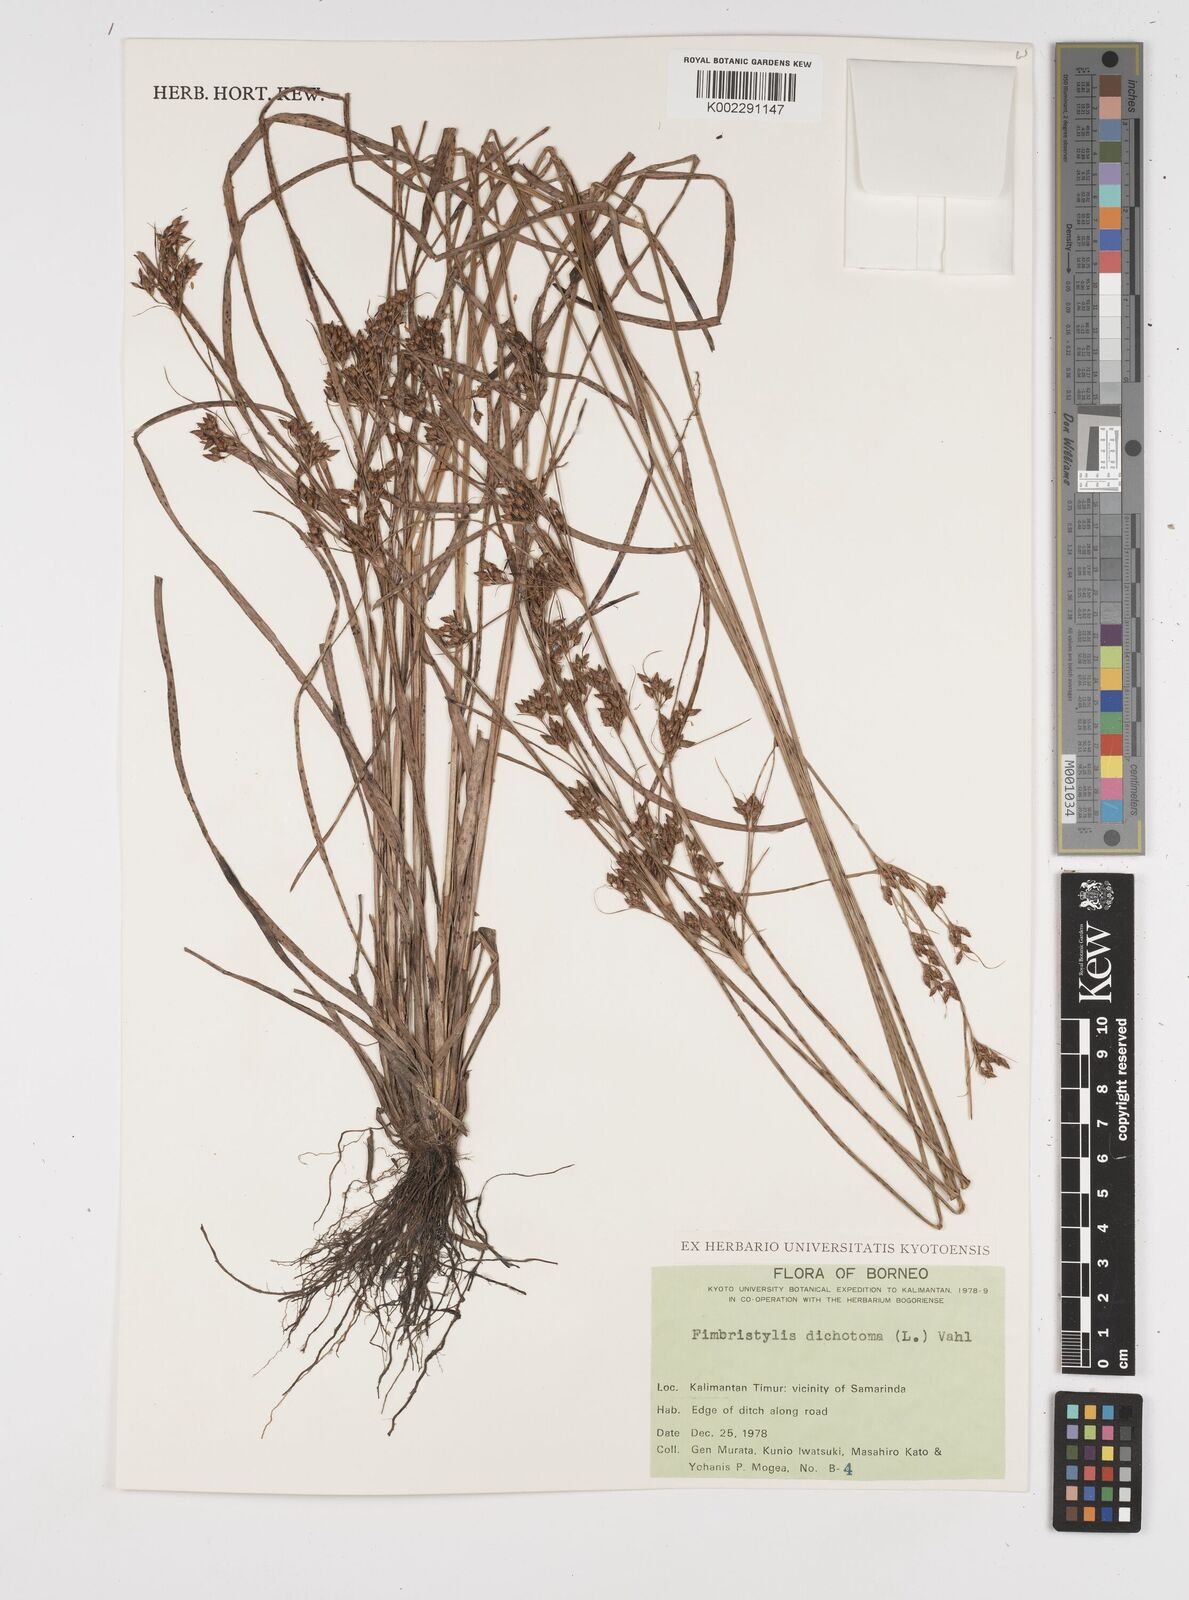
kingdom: Plantae
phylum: Tracheophyta
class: Liliopsida
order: Poales
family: Cyperaceae
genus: Fimbristylis
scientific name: Fimbristylis dichotoma
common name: Forked fimbry
